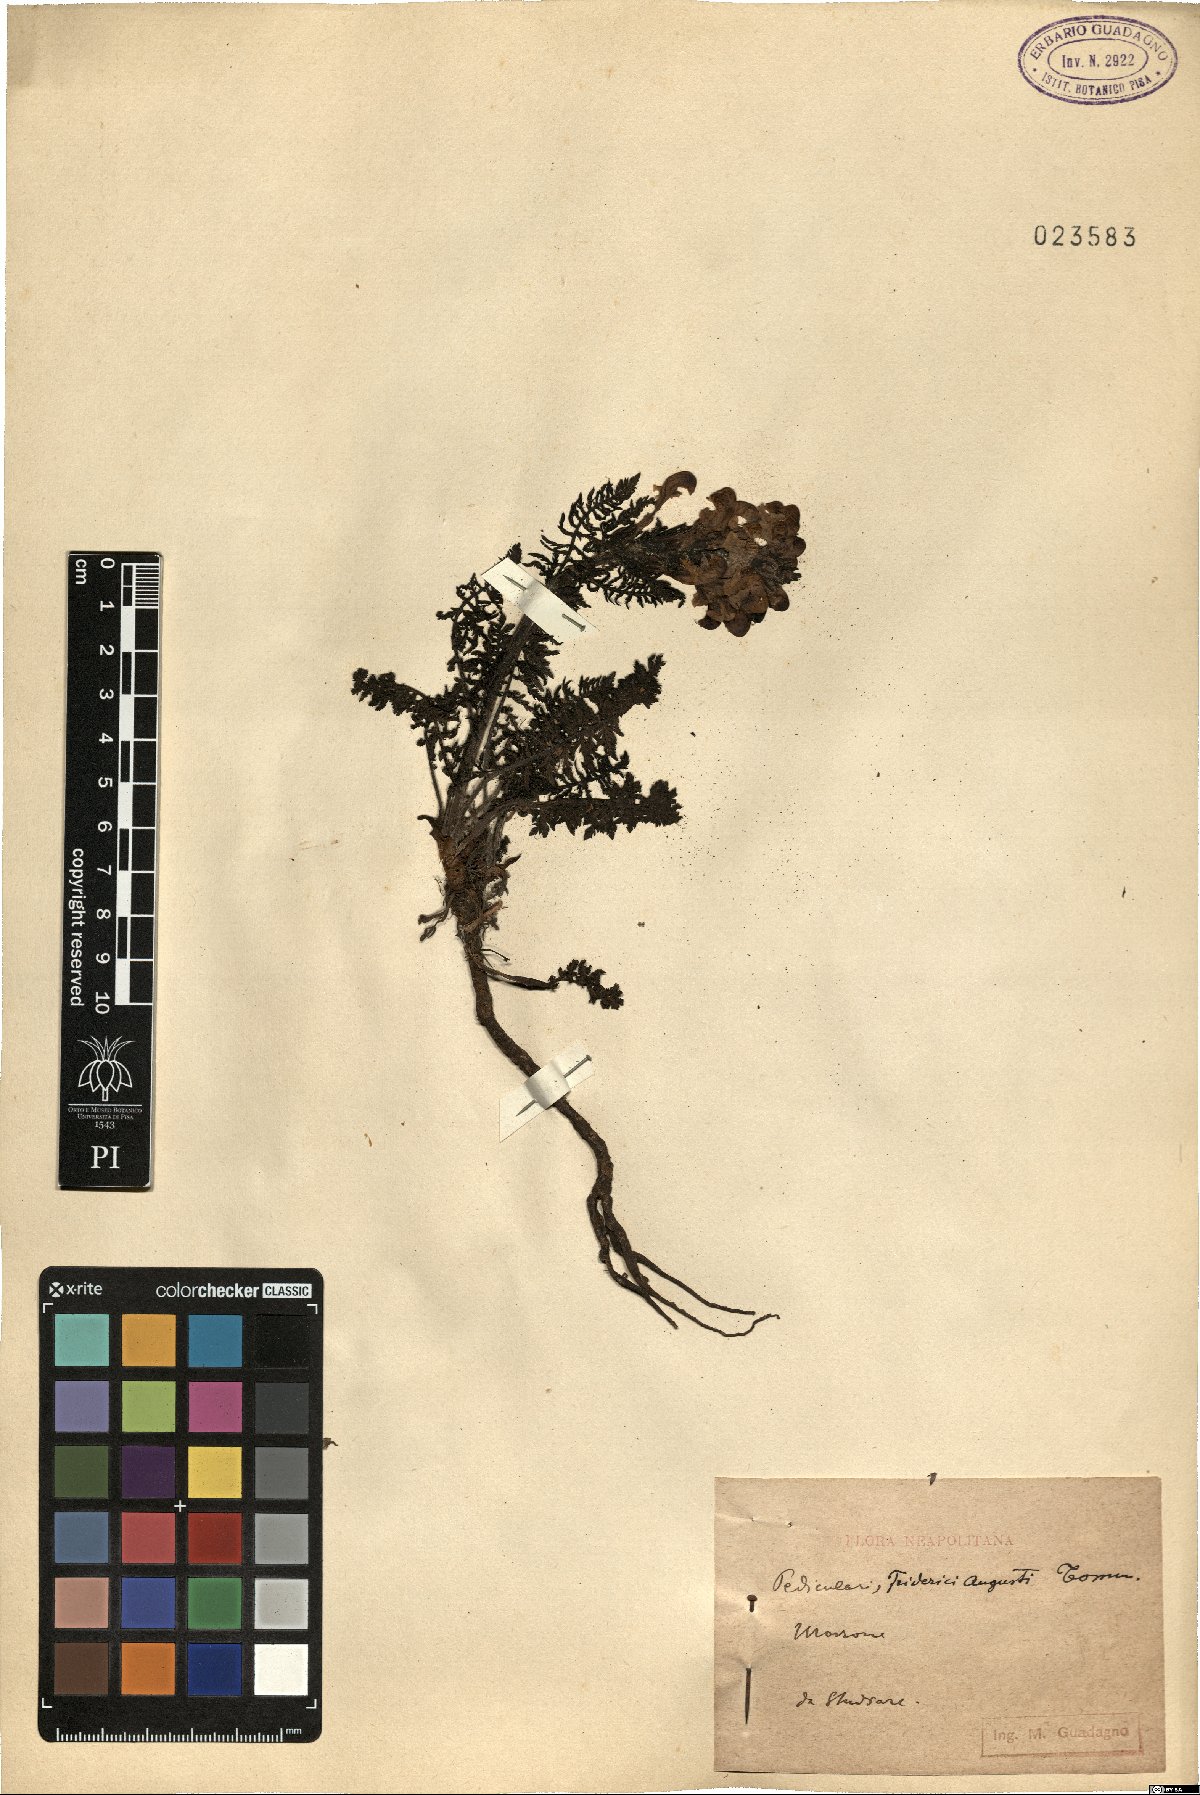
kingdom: Plantae
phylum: Tracheophyta
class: Magnoliopsida
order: Lamiales
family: Orobanchaceae
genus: Pedicularis
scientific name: Pedicularis friderici-augusti
